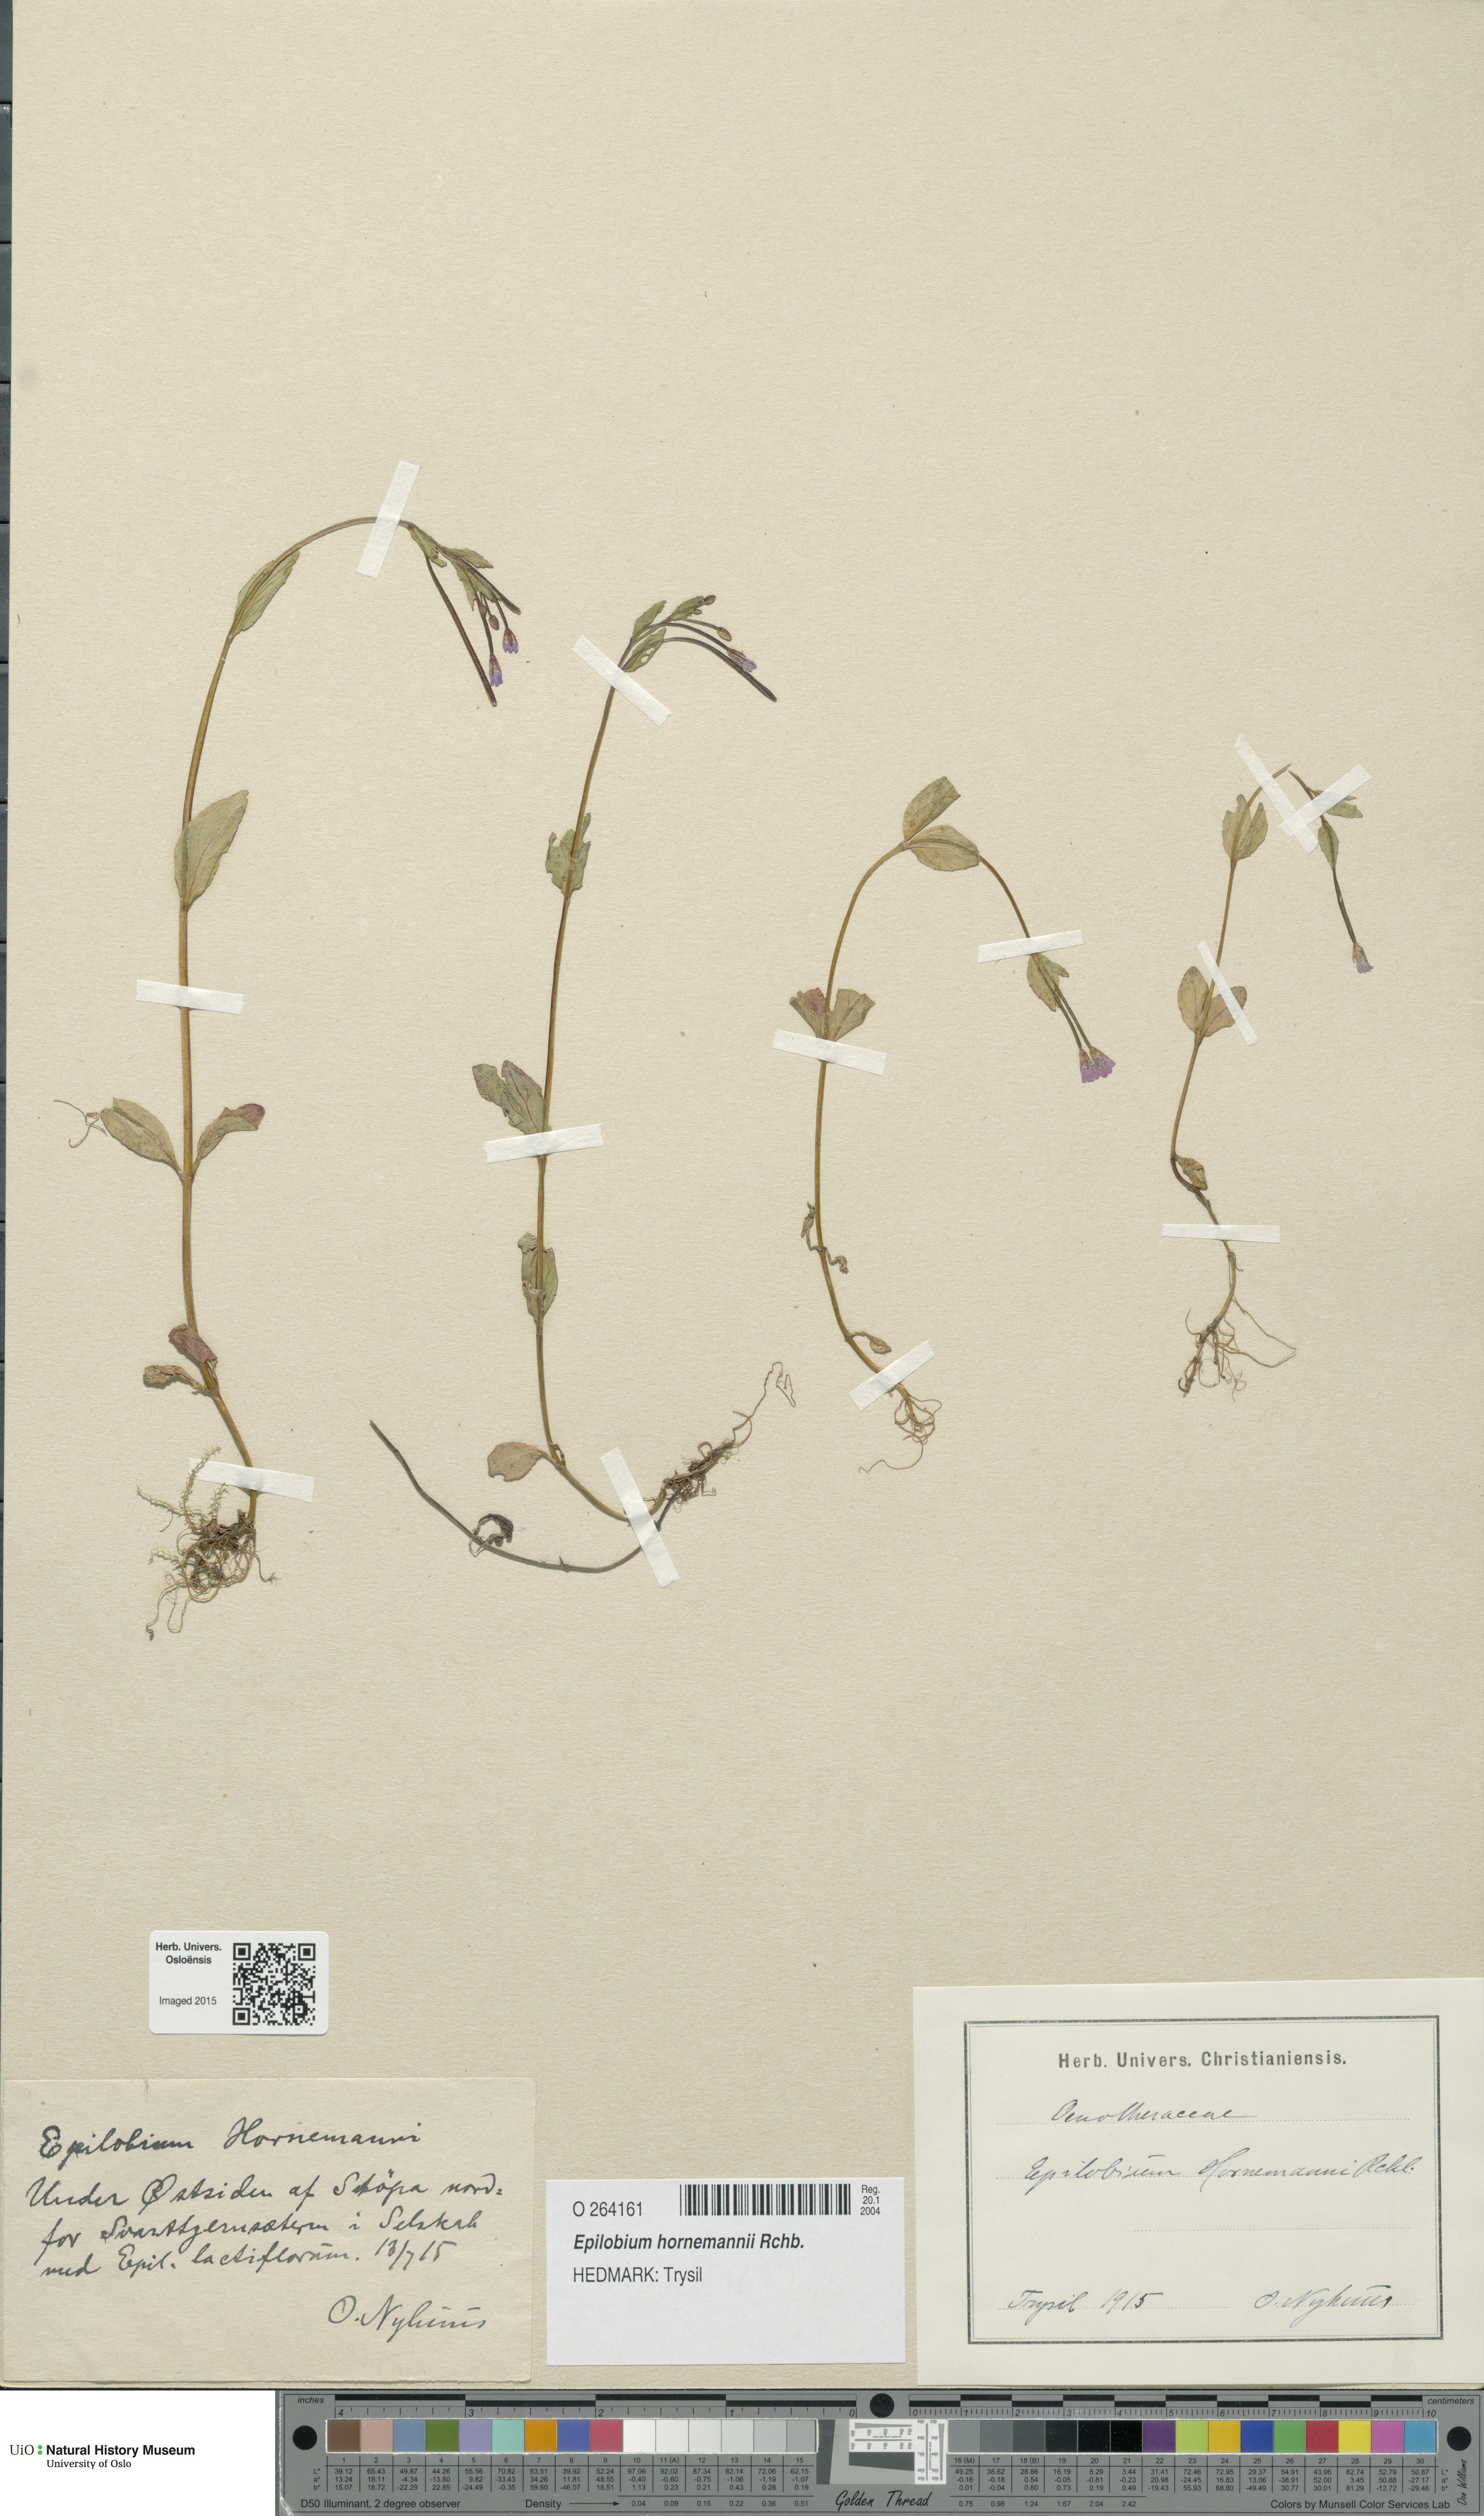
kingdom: Plantae
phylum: Tracheophyta
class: Magnoliopsida
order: Myrtales
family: Onagraceae
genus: Epilobium
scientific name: Epilobium hornemannii
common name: Hornemann's willowherb
